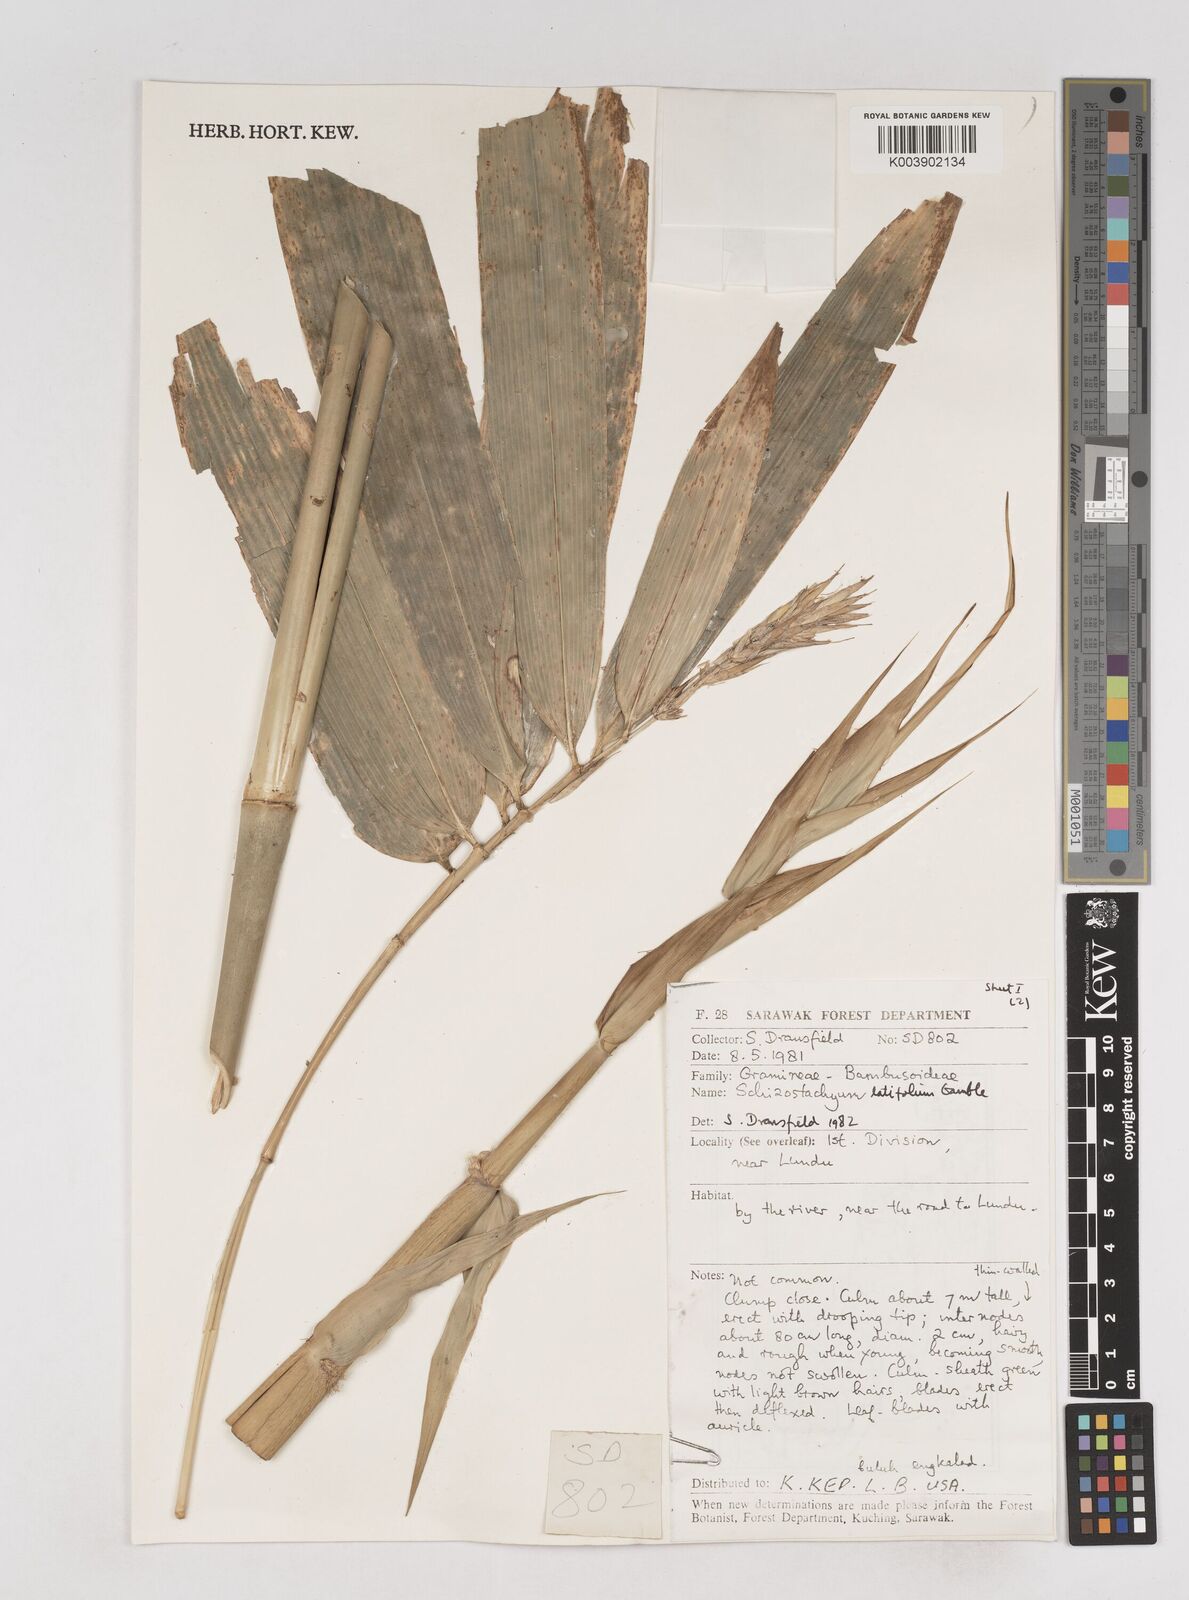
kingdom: Plantae
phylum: Tracheophyta
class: Liliopsida
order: Poales
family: Poaceae
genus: Schizostachyum
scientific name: Schizostachyum
